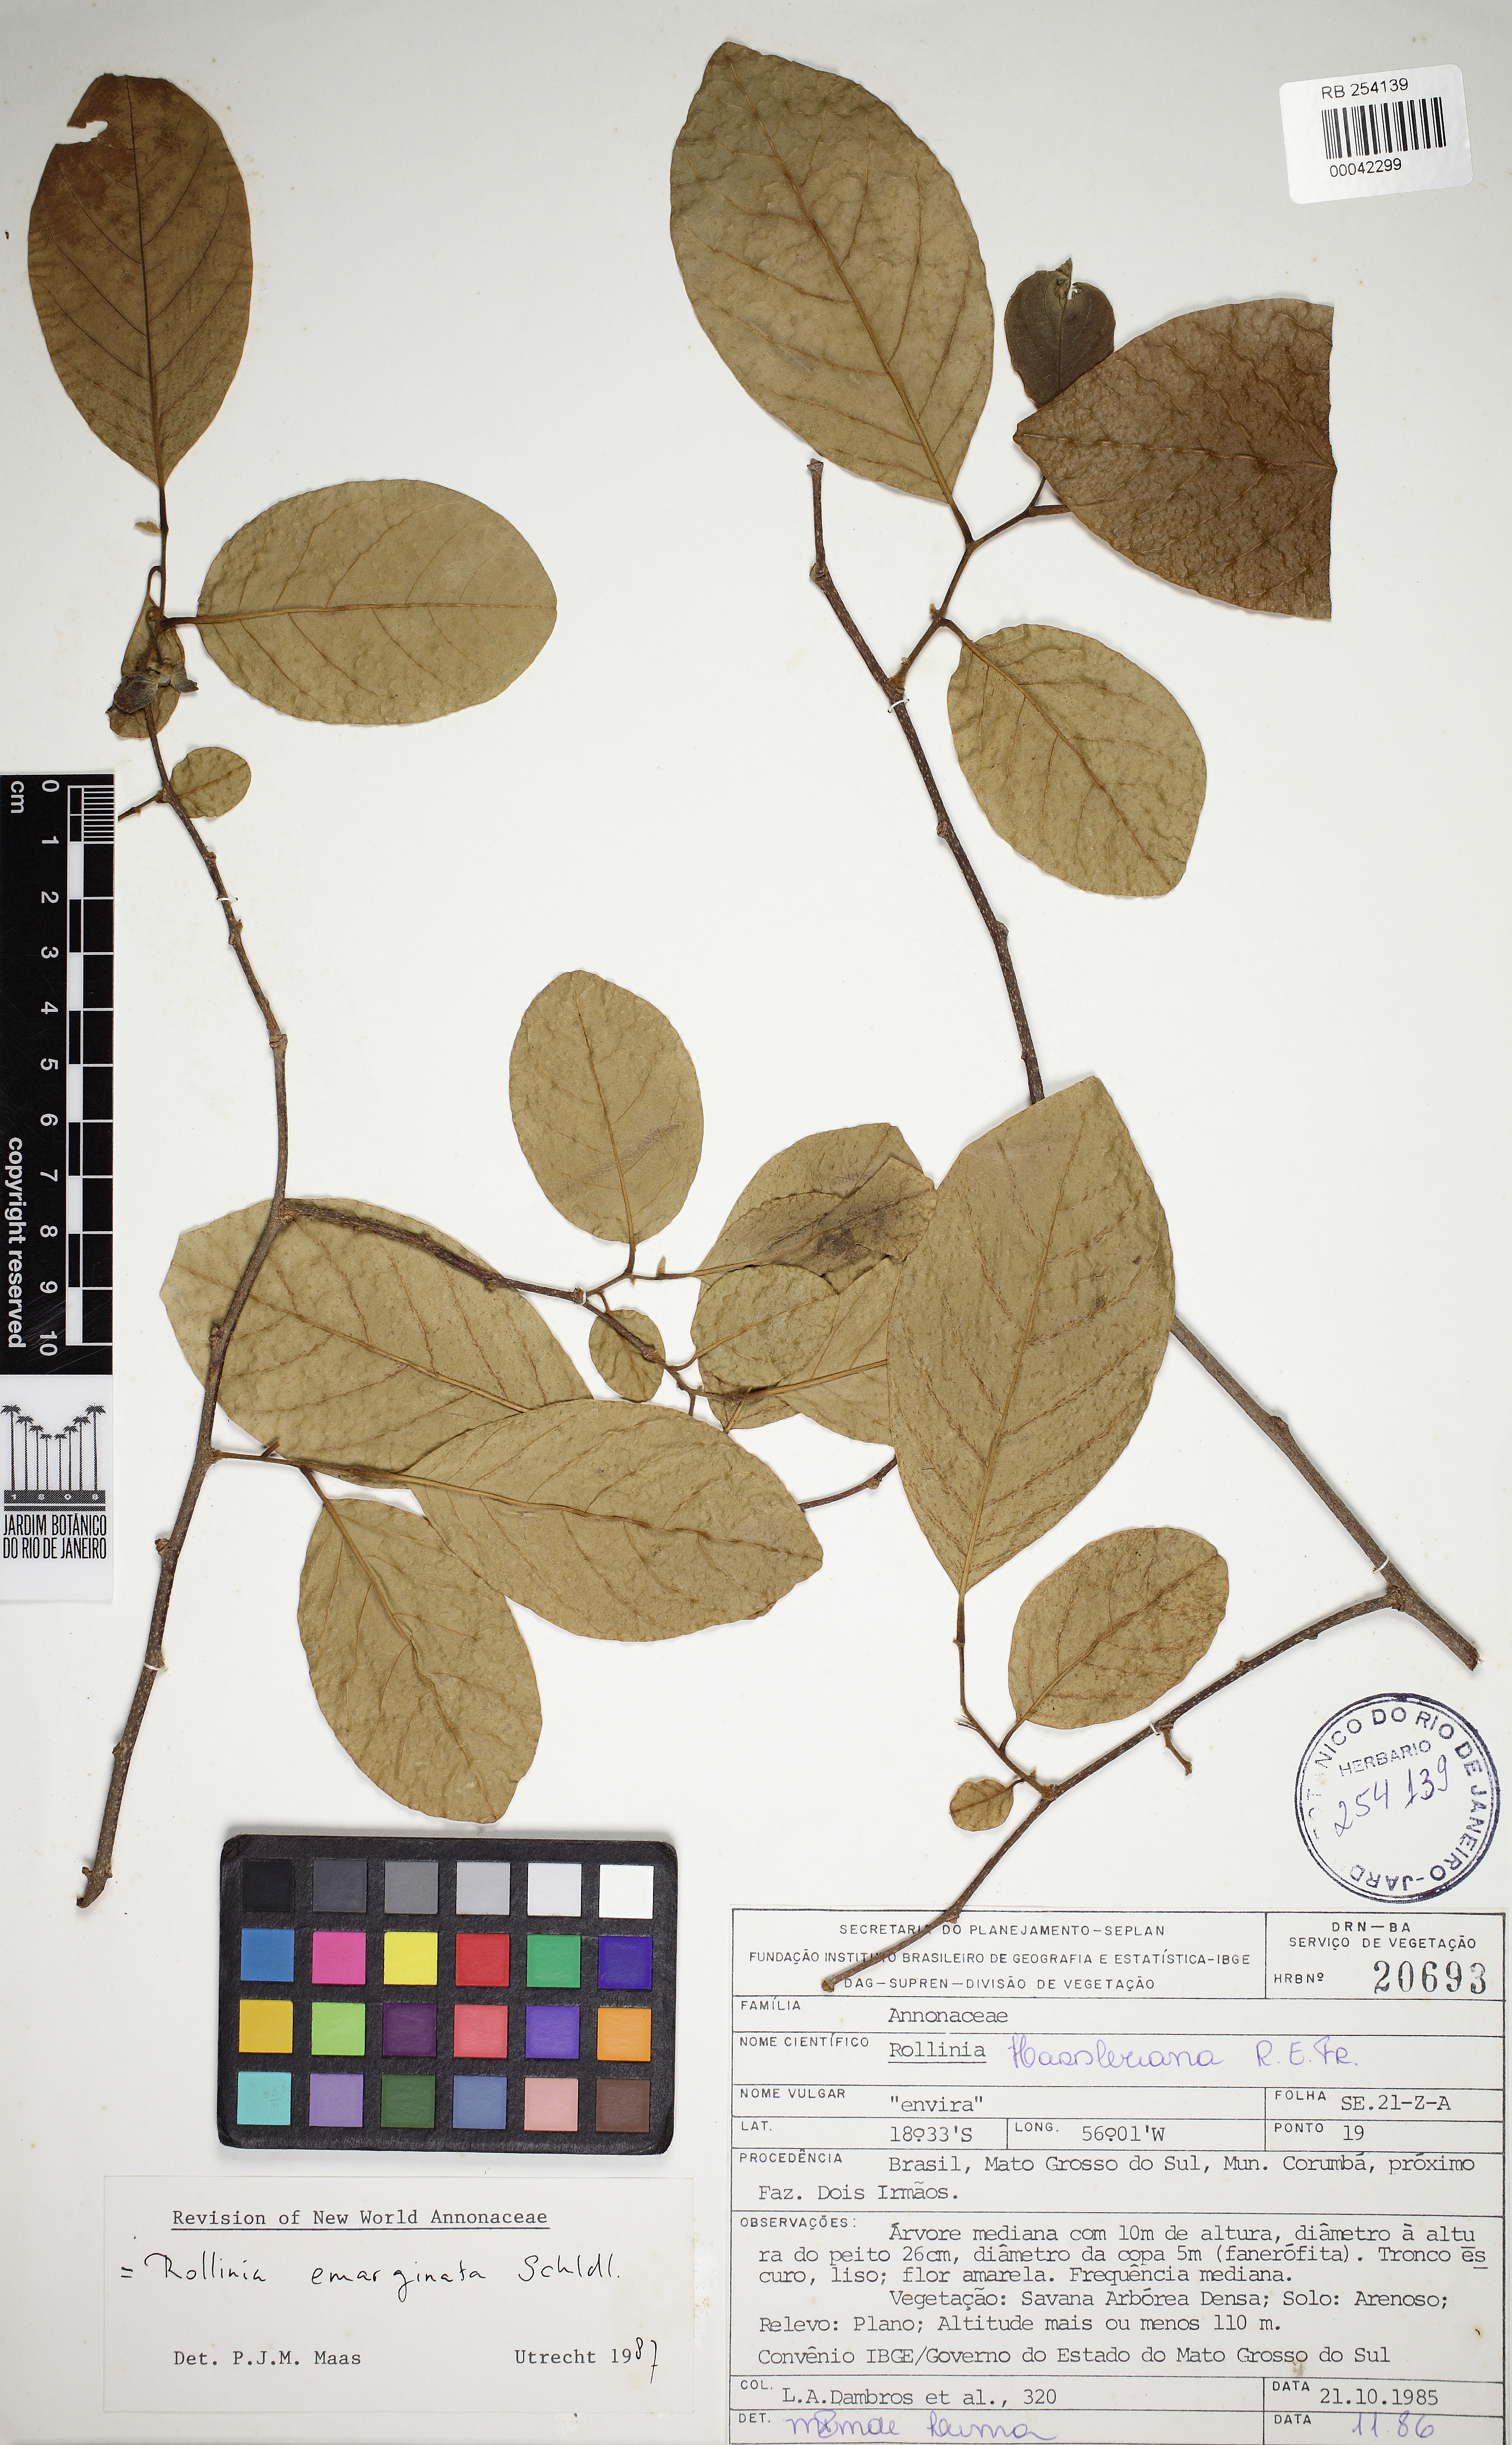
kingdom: Plantae
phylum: Tracheophyta
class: Magnoliopsida
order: Magnoliales
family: Annonaceae
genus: Annona
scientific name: Annona dolabripetala
